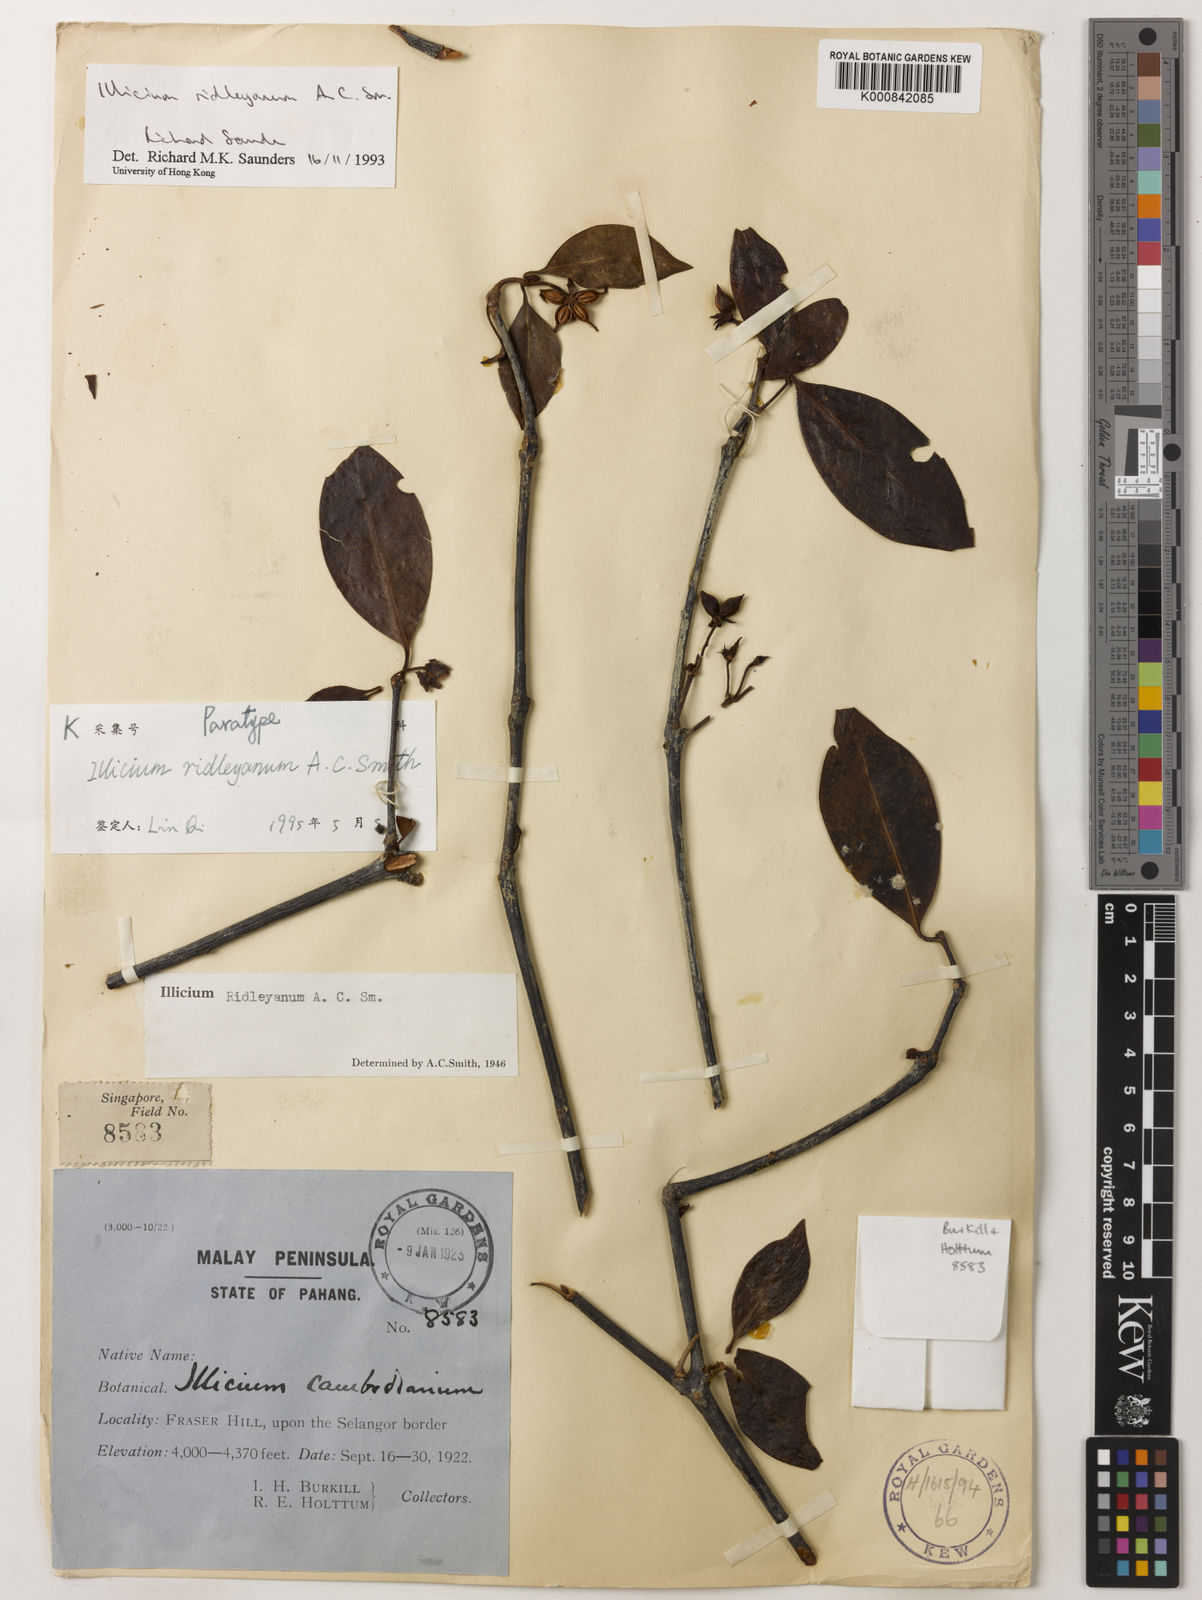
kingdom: Plantae
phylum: Tracheophyta
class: Magnoliopsida
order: Austrobaileyales
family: Schisandraceae
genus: Illicium
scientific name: Illicium ridleyanum
